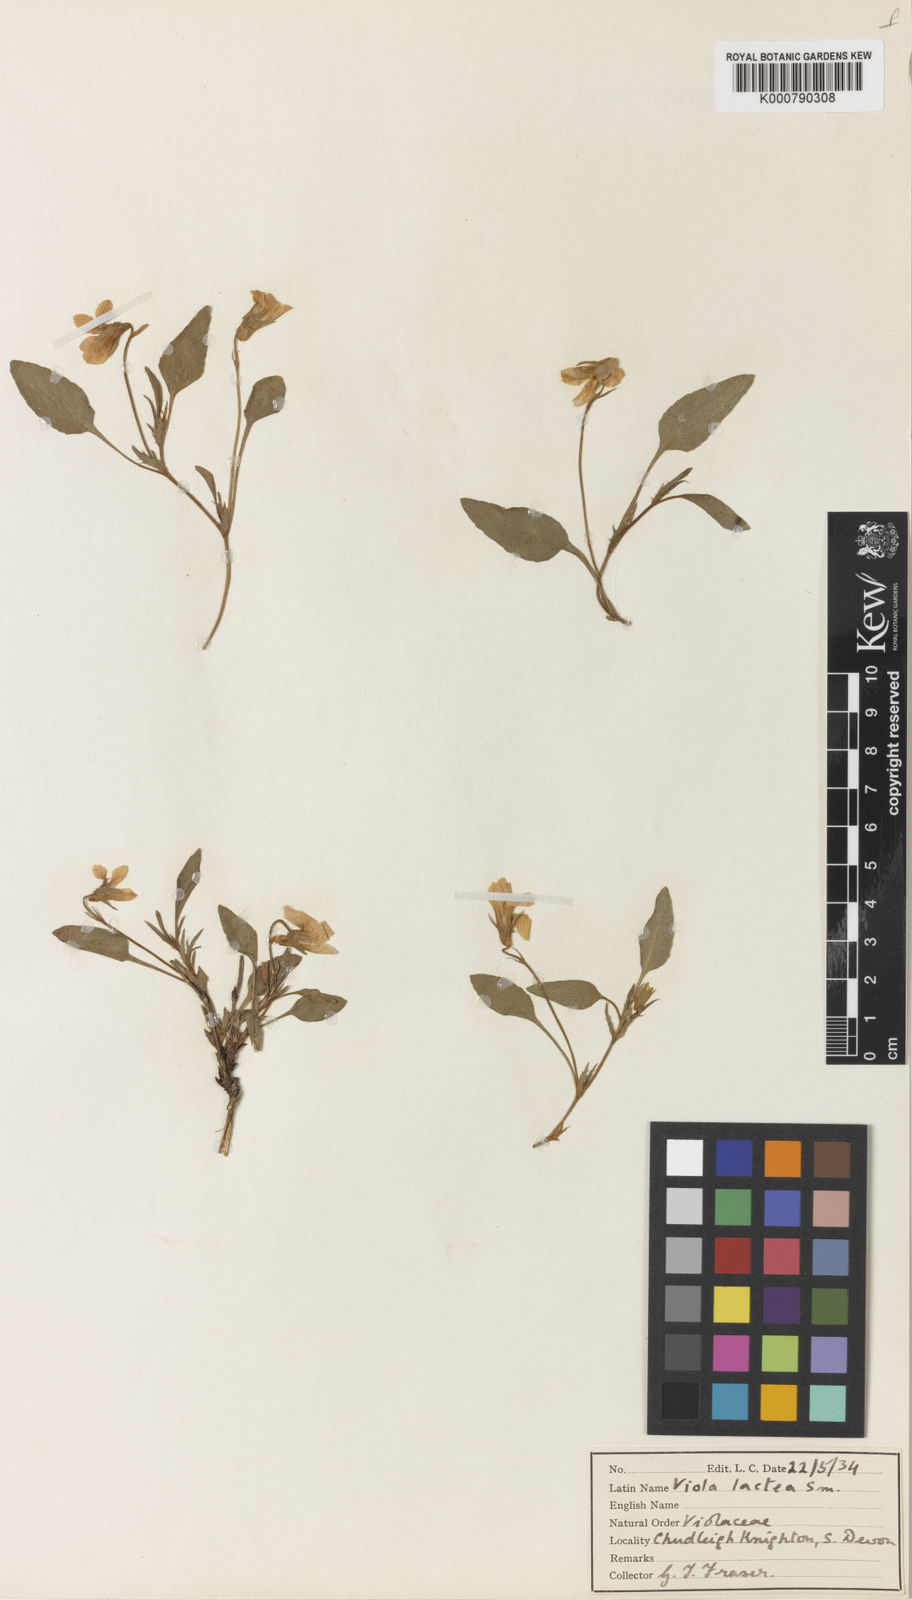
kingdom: Plantae
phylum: Tracheophyta
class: Magnoliopsida
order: Malpighiales
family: Violaceae
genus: Viola
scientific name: Viola lactea
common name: Pale dog-violet
